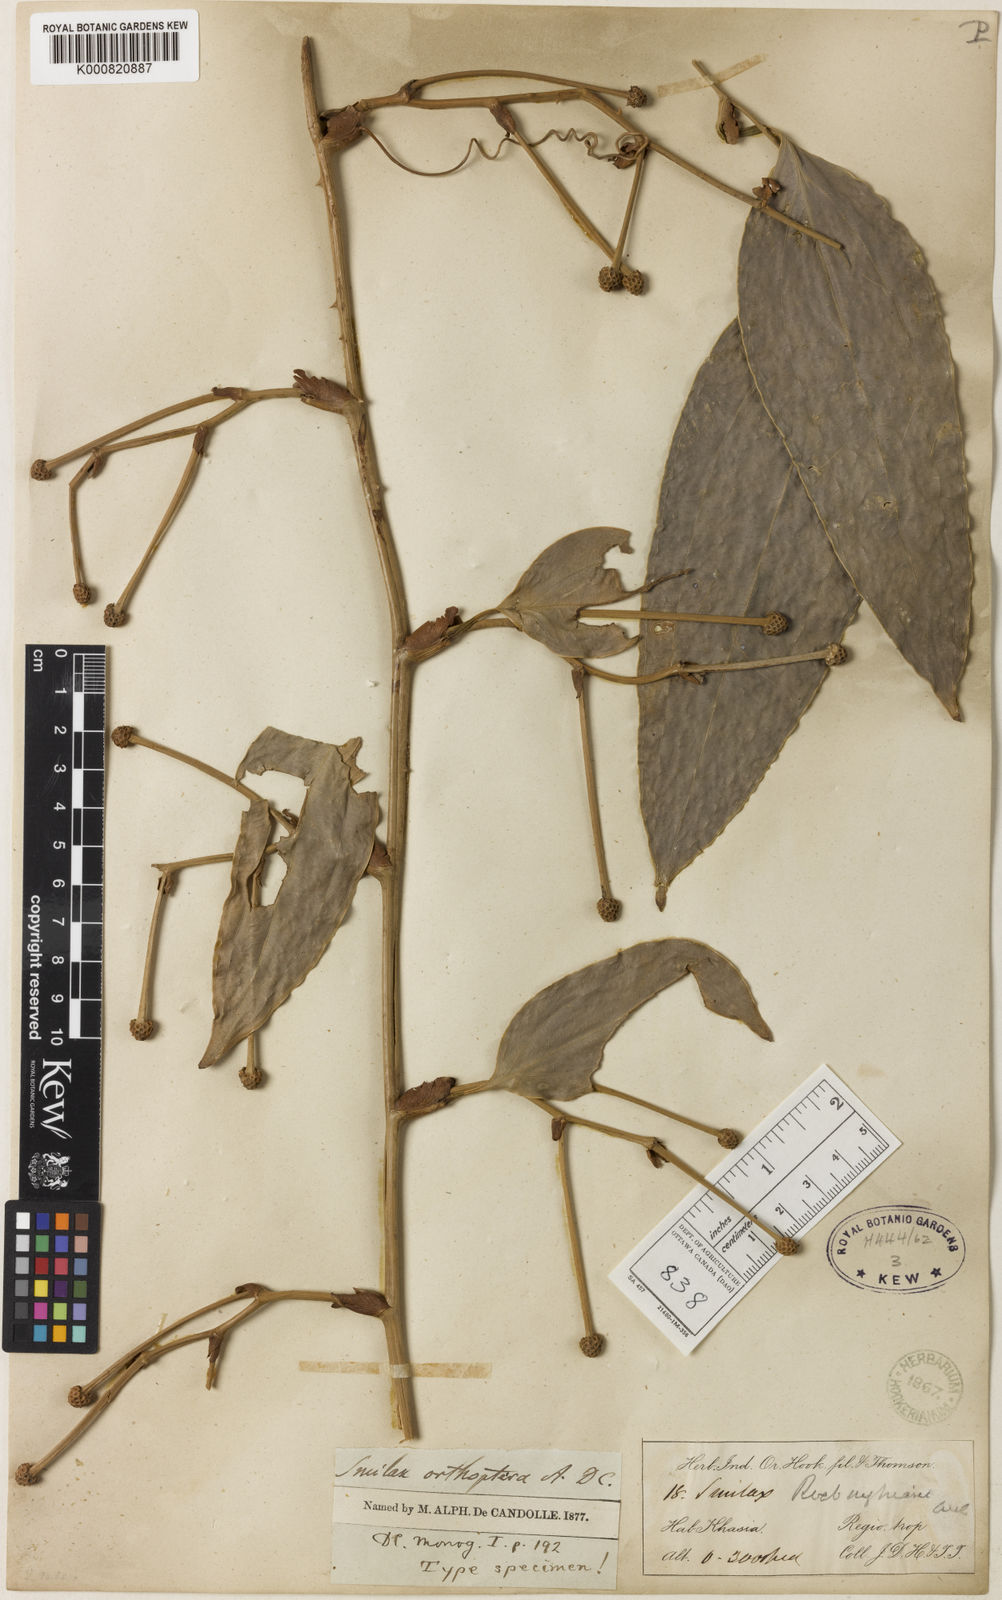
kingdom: Plantae
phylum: Tracheophyta
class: Liliopsida
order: Liliales
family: Smilacaceae
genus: Smilax
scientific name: Smilax orthoptera
